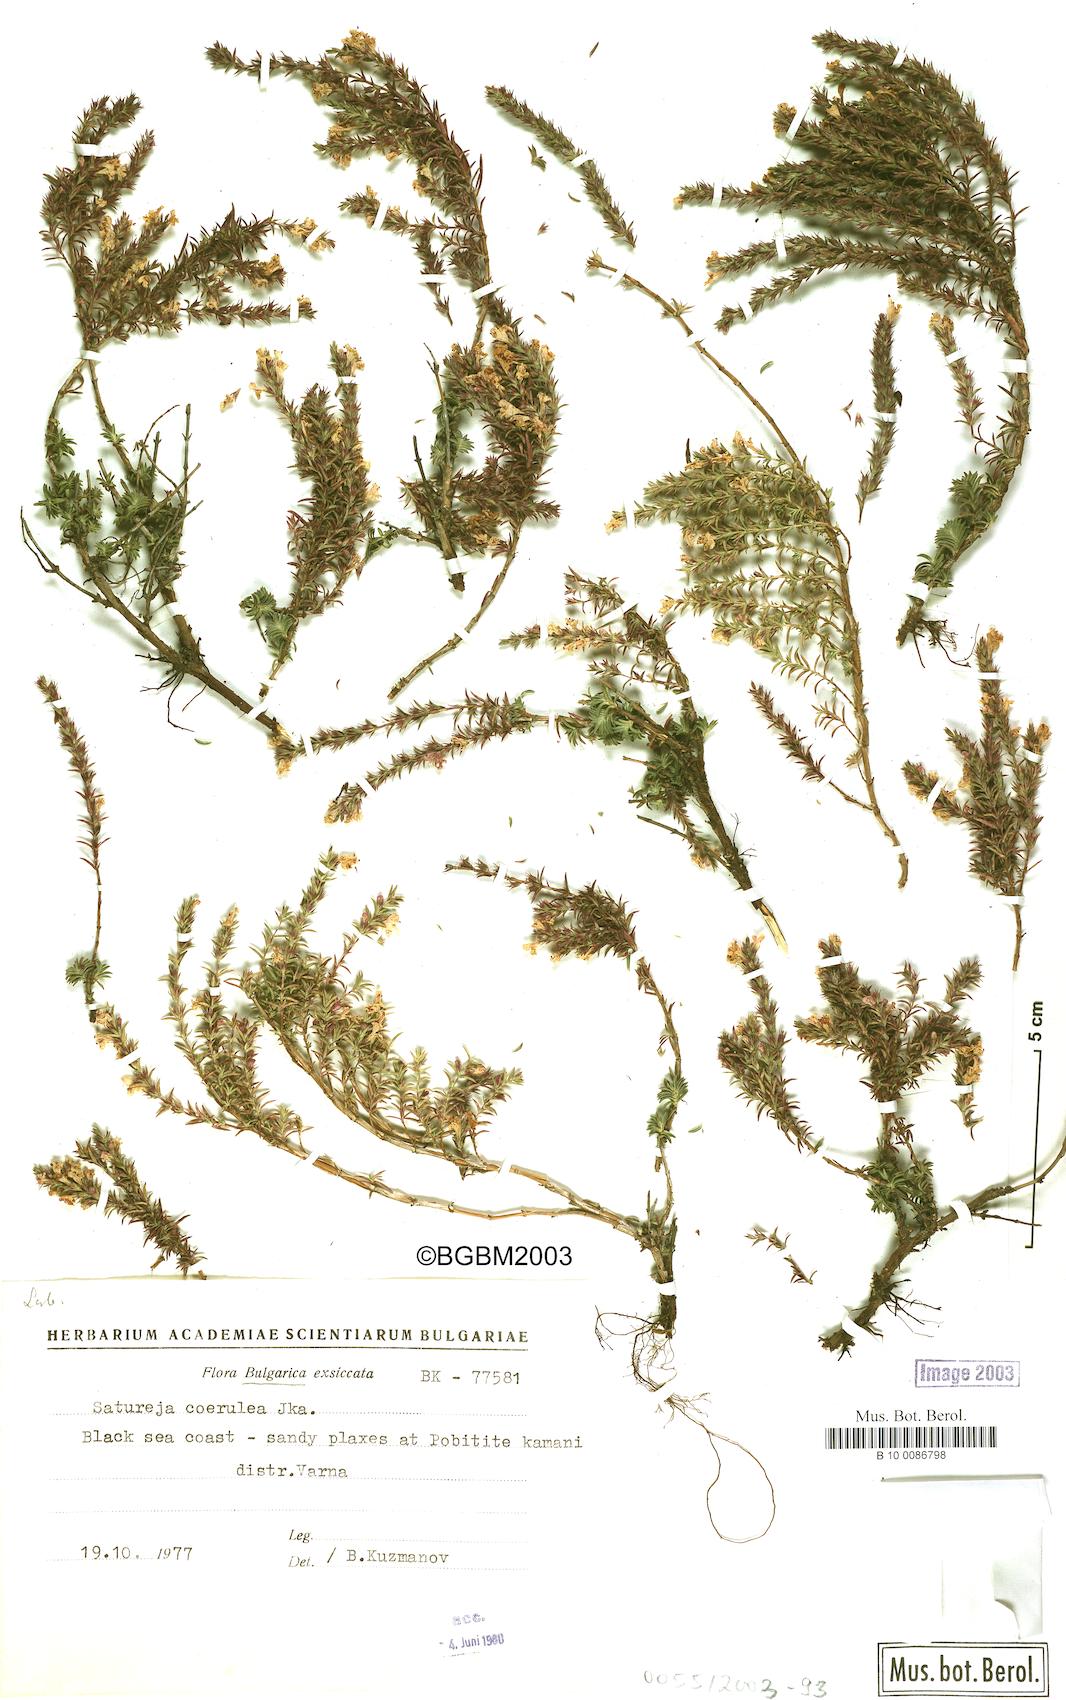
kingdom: Plantae
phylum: Tracheophyta
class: Magnoliopsida
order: Lamiales
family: Lamiaceae
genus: Satureja
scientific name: Satureja coerulea
